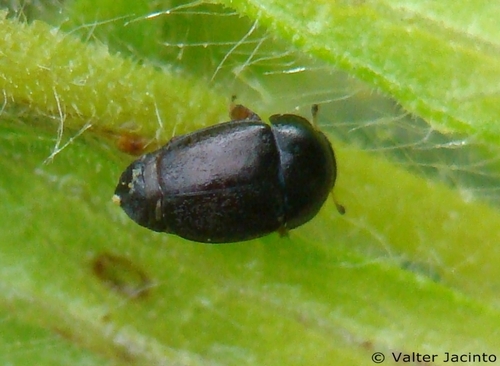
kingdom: Animalia
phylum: Arthropoda
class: Insecta
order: Coleoptera
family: Nitidulidae
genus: Meligethes
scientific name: Meligethes
